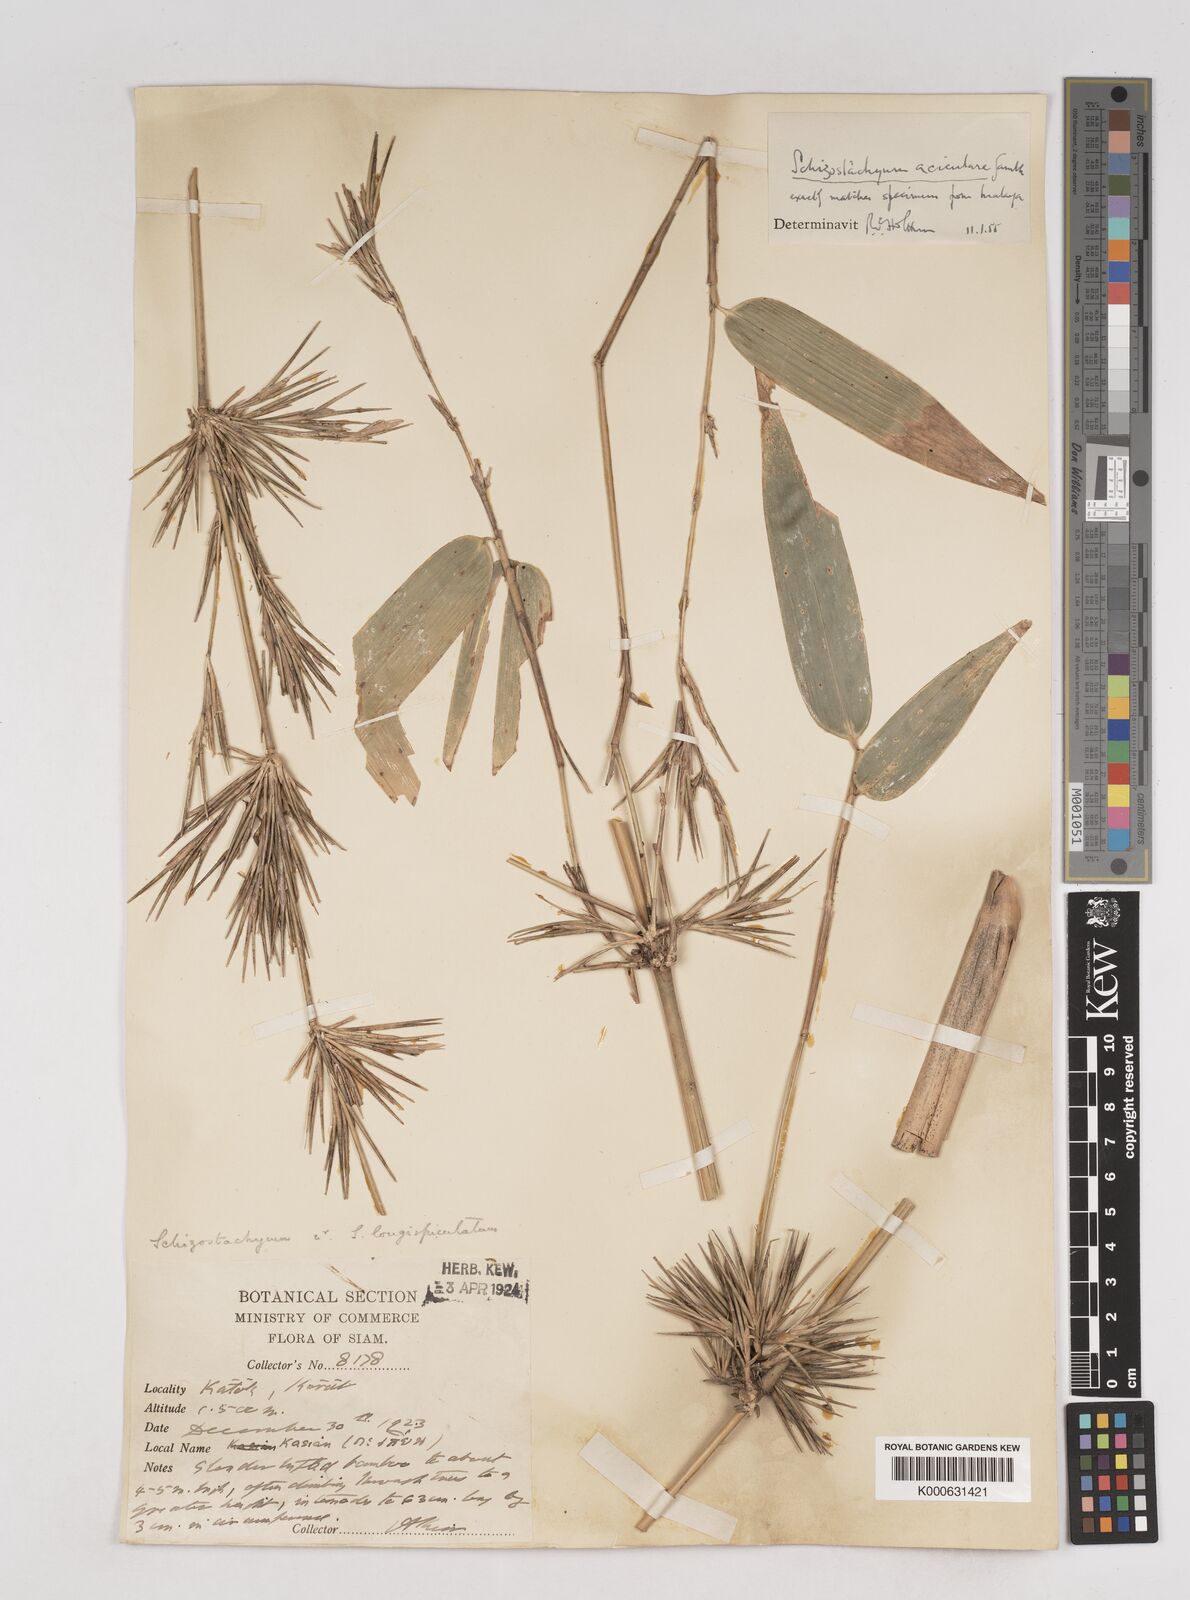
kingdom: Plantae
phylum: Tracheophyta
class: Liliopsida
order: Poales
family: Poaceae
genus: Schizostachyum
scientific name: Schizostachyum aciculare
